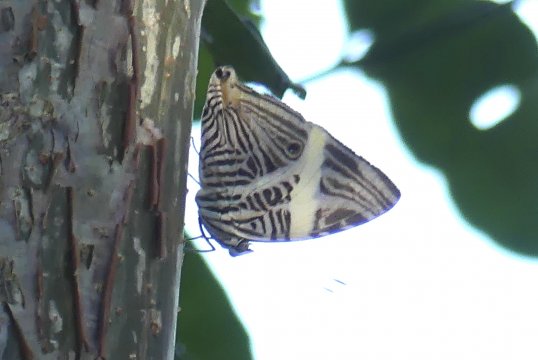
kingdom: Animalia
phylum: Arthropoda
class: Insecta
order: Lepidoptera
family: Nymphalidae
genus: Colobura
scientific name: Colobura dirce
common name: Dirce Beauty
